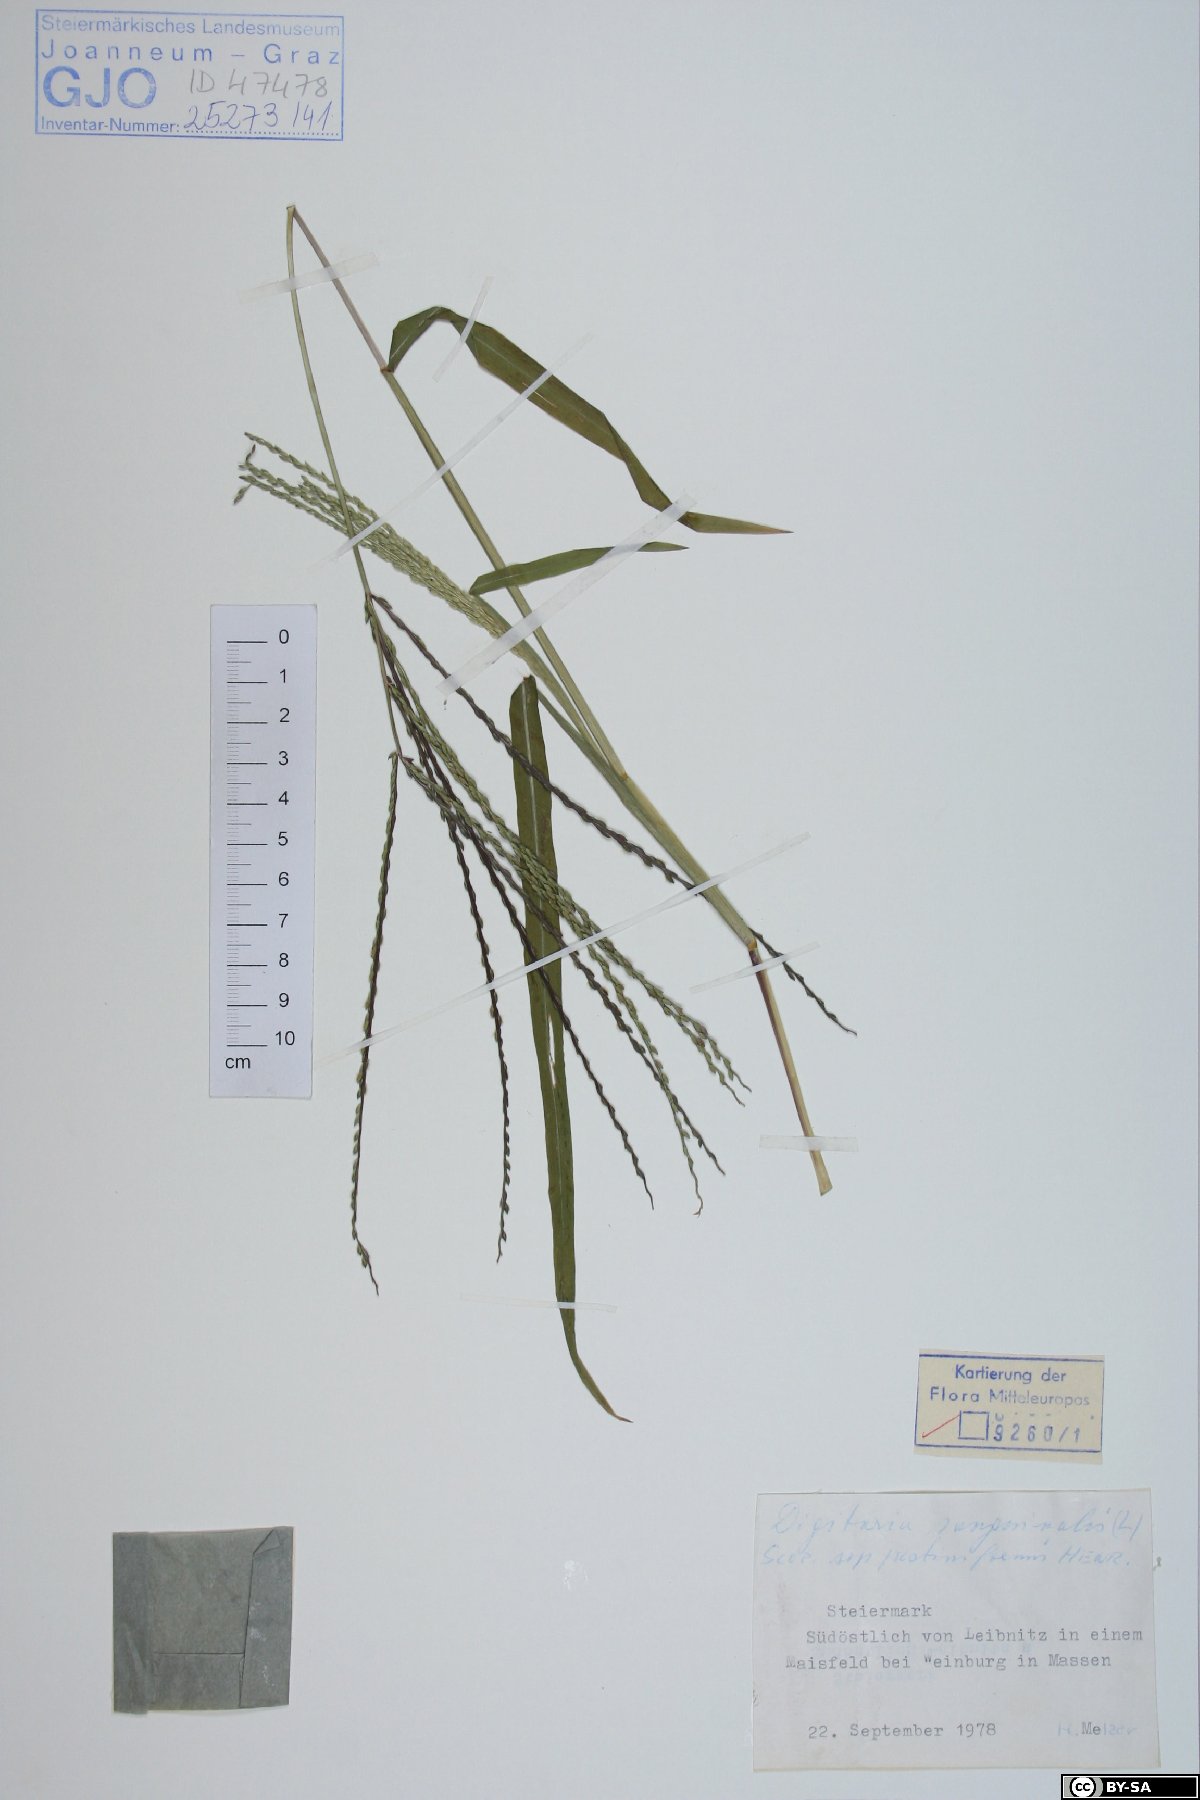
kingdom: Plantae
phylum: Tracheophyta
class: Liliopsida
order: Poales
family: Poaceae
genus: Digitaria
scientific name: Digitaria sanguinalis
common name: Hairy crabgrass
